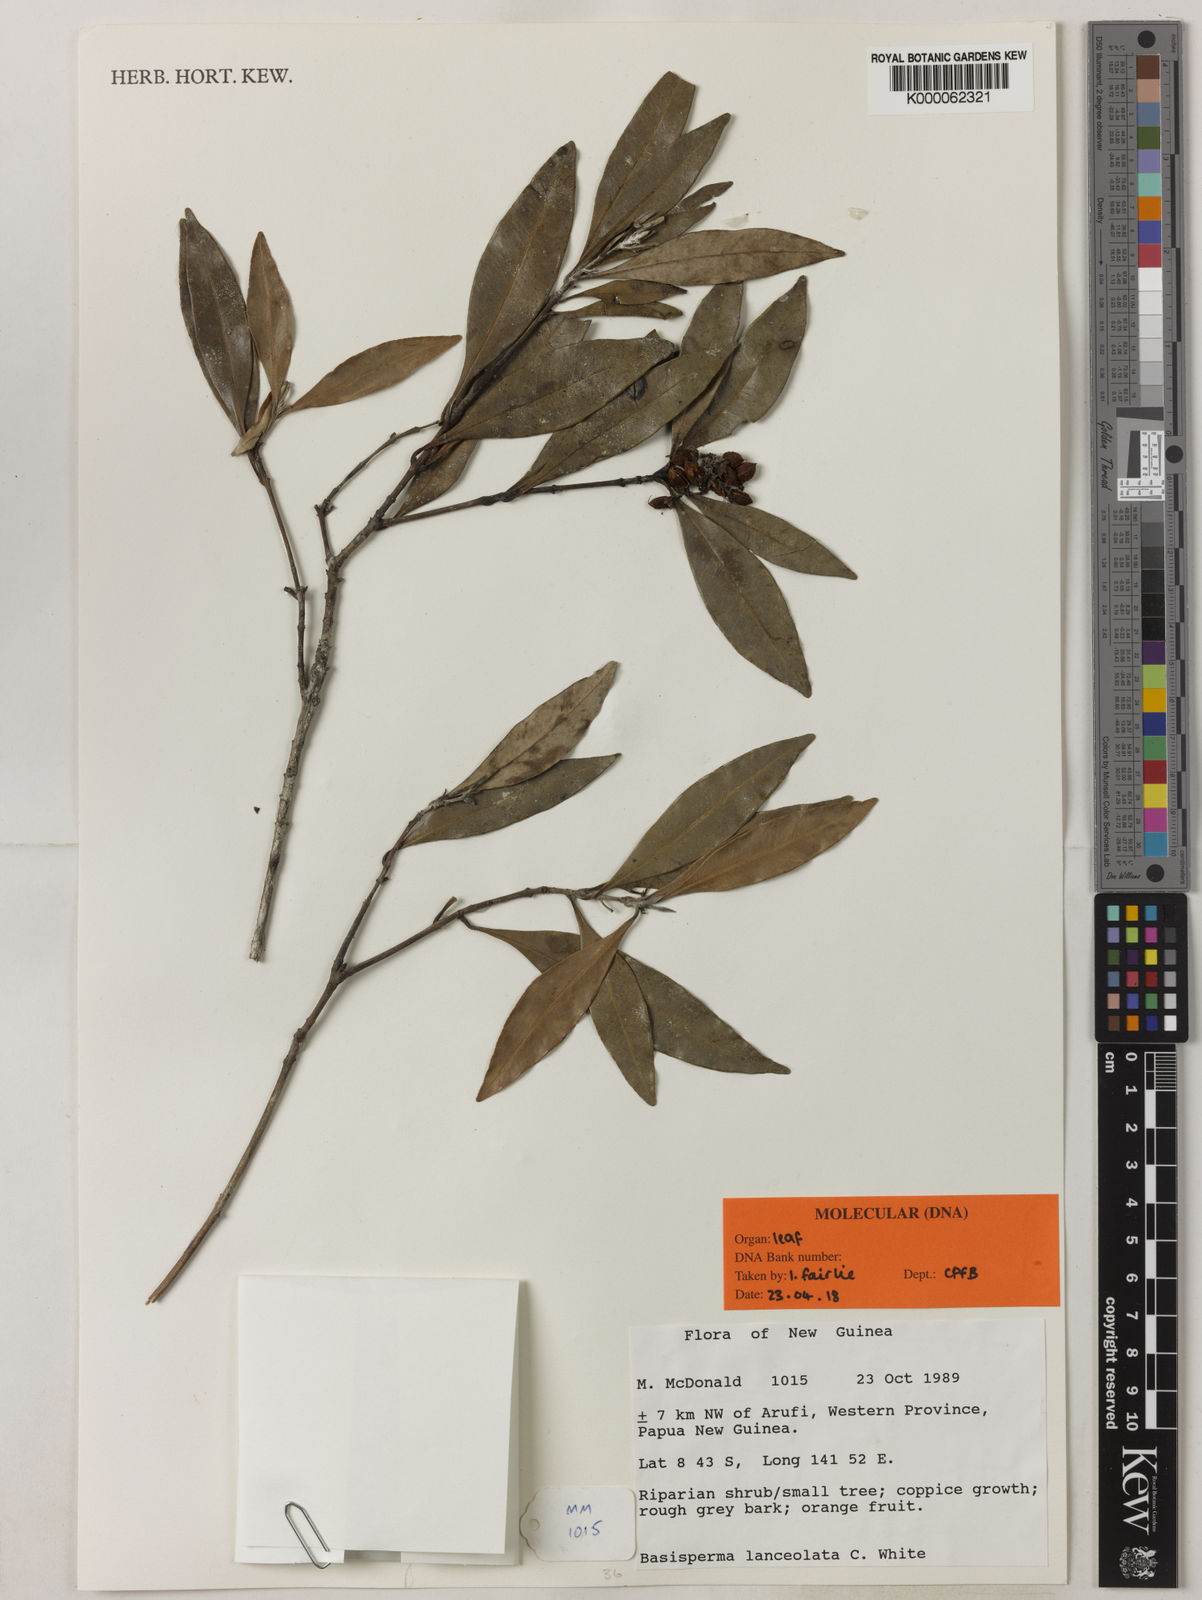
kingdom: Plantae
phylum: Tracheophyta
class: Magnoliopsida
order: Myrtales
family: Myrtaceae
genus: Basisperma
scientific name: Basisperma lanceolata
